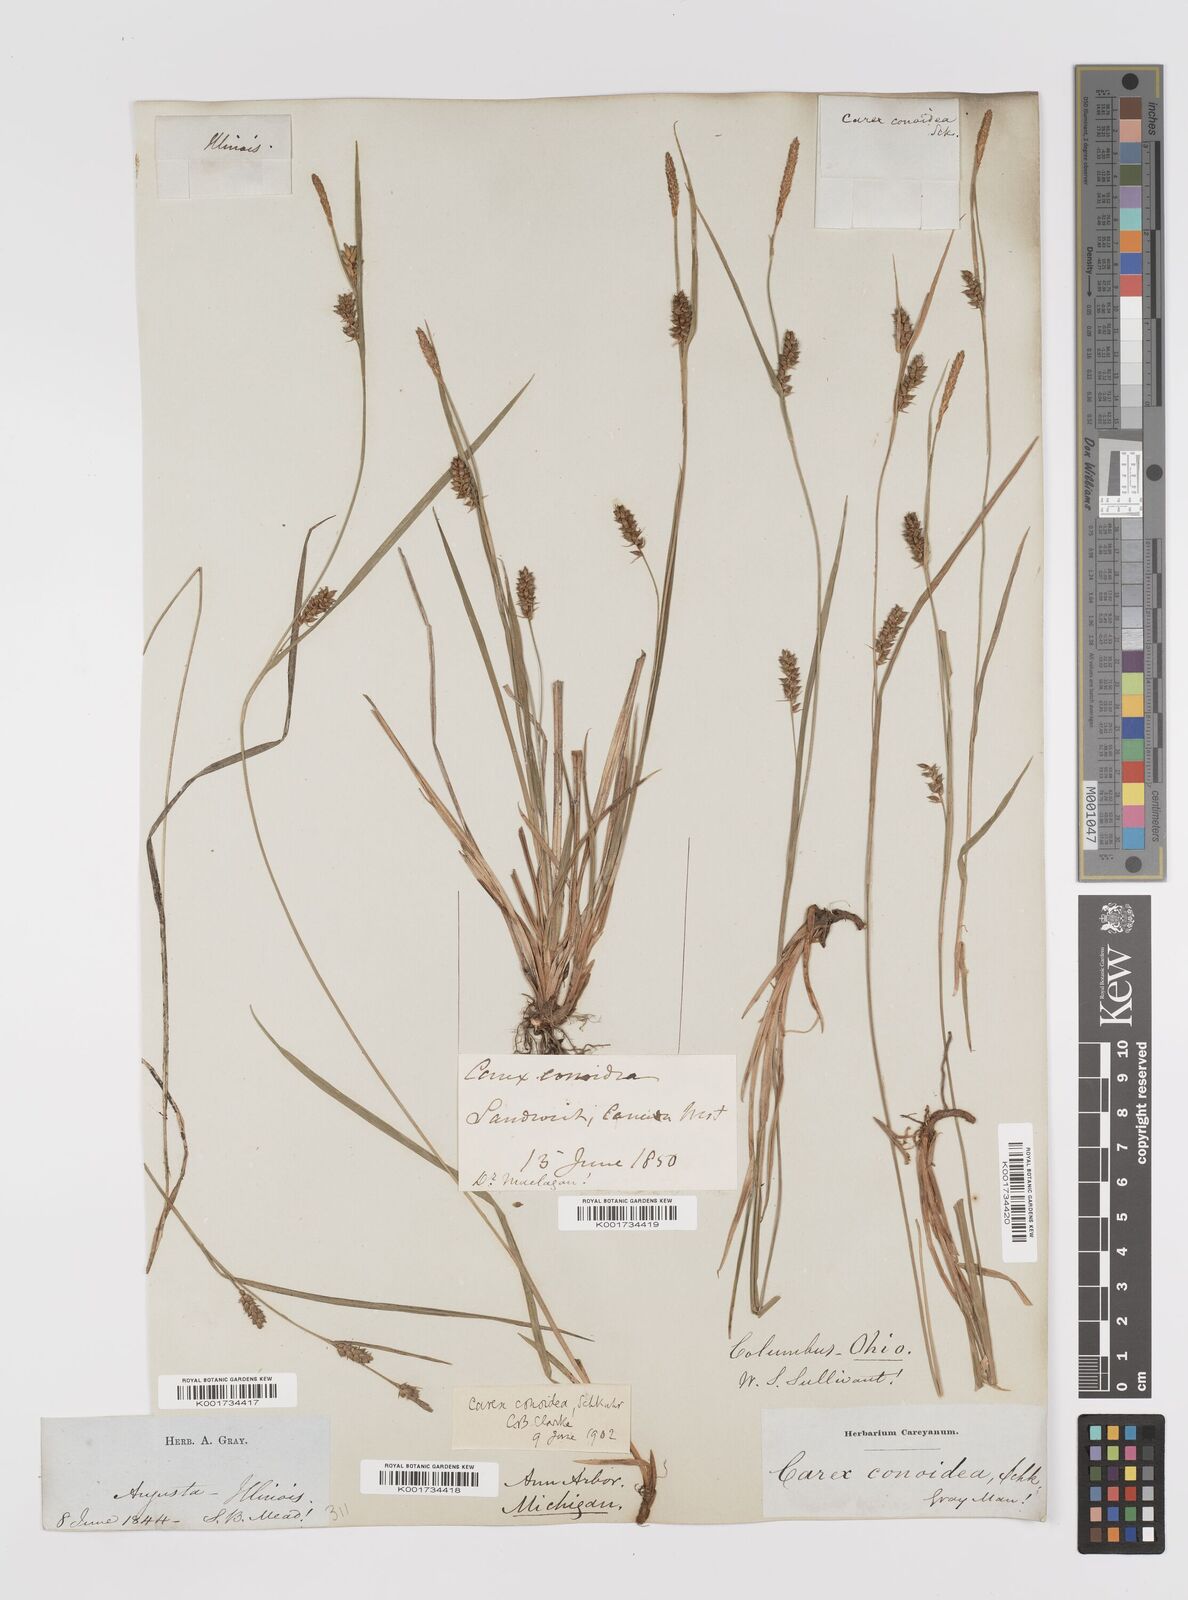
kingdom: Plantae
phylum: Tracheophyta
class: Liliopsida
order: Poales
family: Cyperaceae
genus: Carex
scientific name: Carex conoidea
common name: Cone shaped sedge
